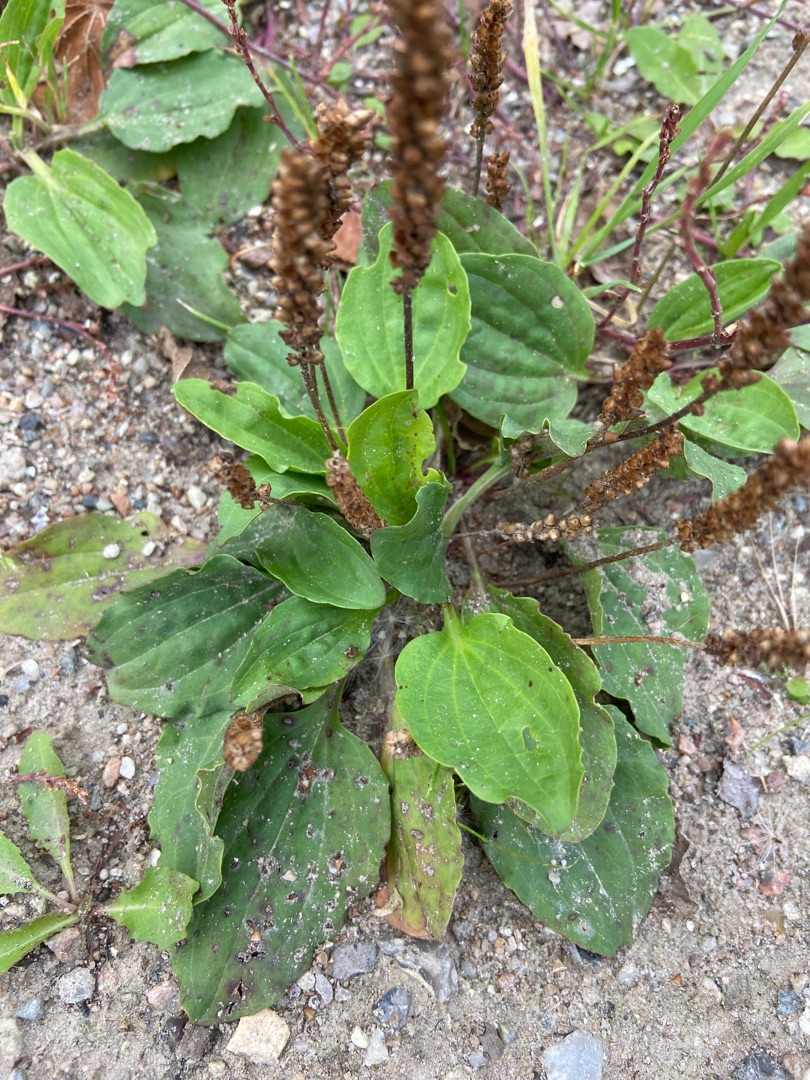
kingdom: Plantae
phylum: Tracheophyta
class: Magnoliopsida
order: Lamiales
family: Plantaginaceae
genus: Plantago
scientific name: Plantago major
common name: Glat vejbred
